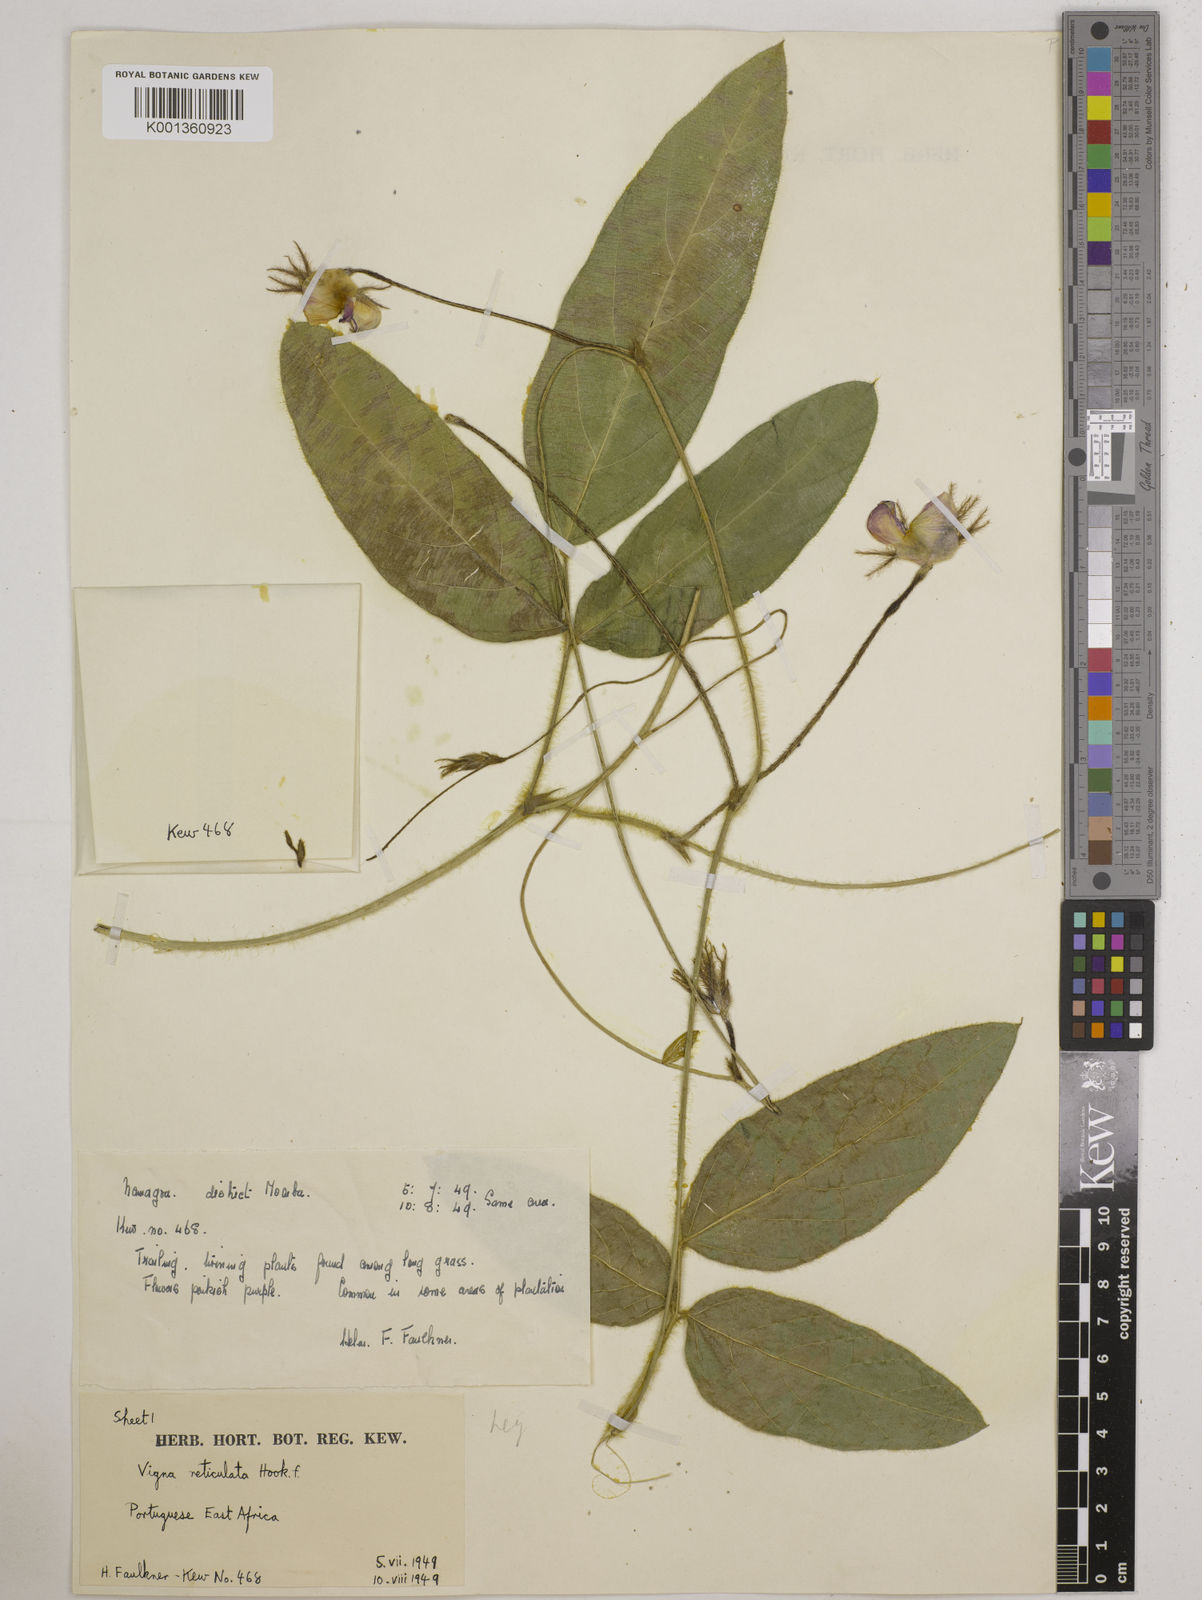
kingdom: Plantae
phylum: Tracheophyta
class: Magnoliopsida
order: Fabales
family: Fabaceae
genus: Vigna
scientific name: Vigna reticulata
